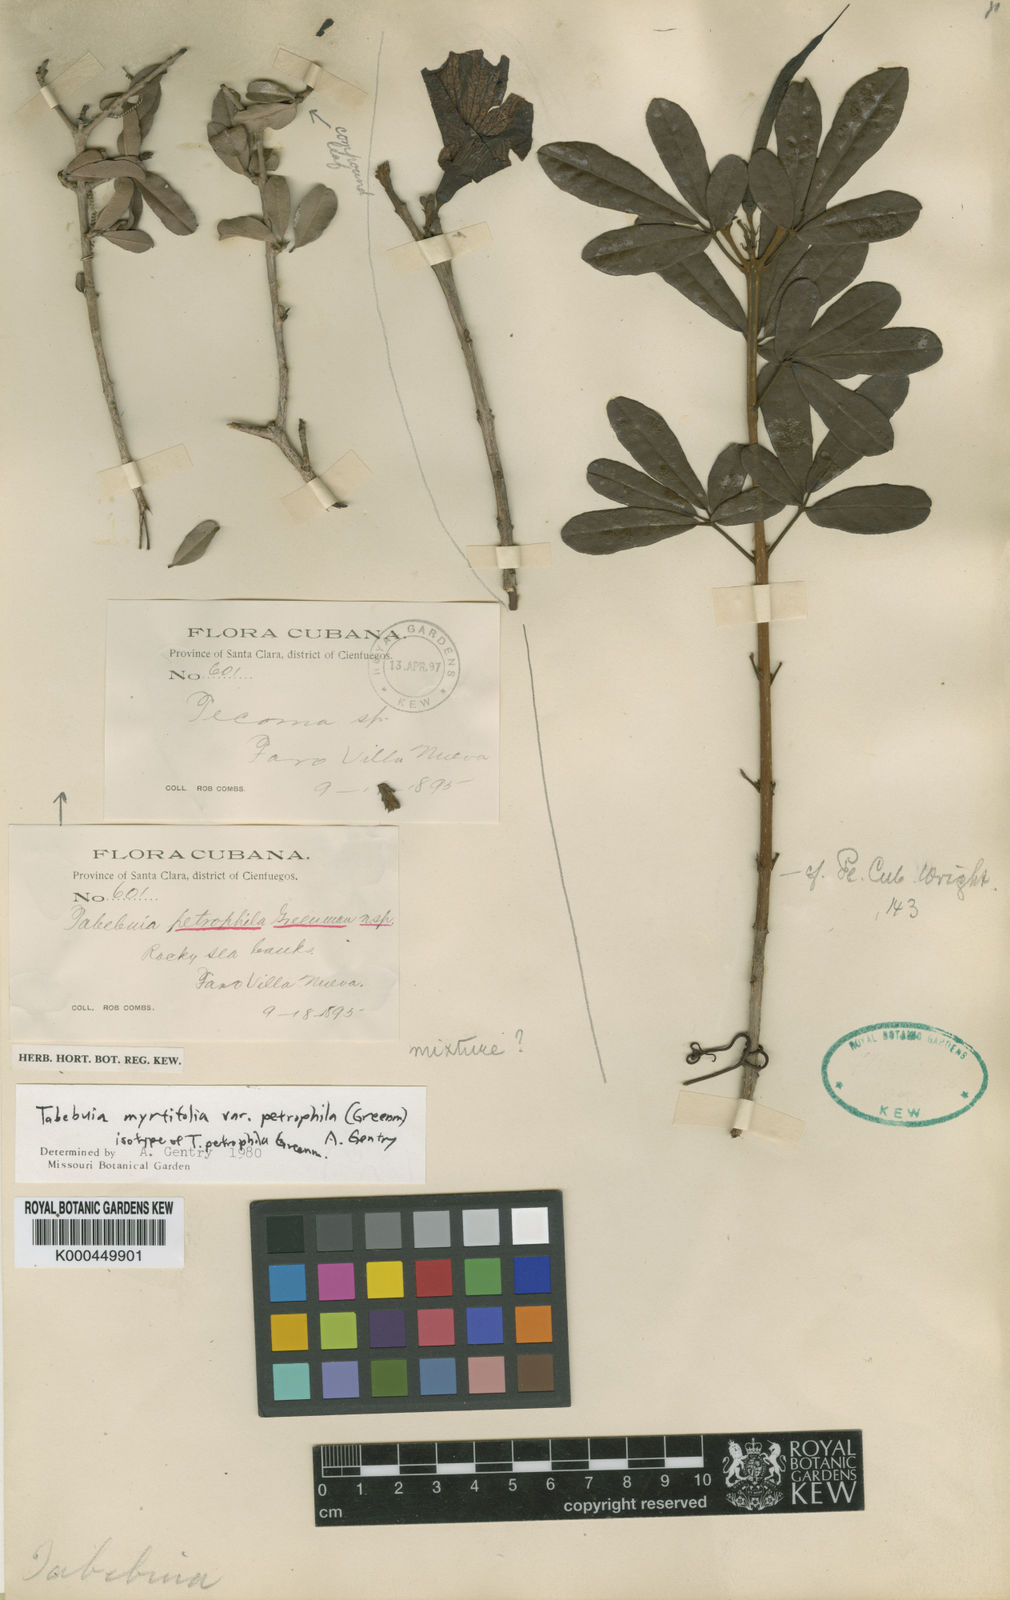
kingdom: Plantae
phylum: Tracheophyta
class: Magnoliopsida
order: Lamiales
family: Bignoniaceae
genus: Tabebuia
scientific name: Tabebuia myrtifolia
